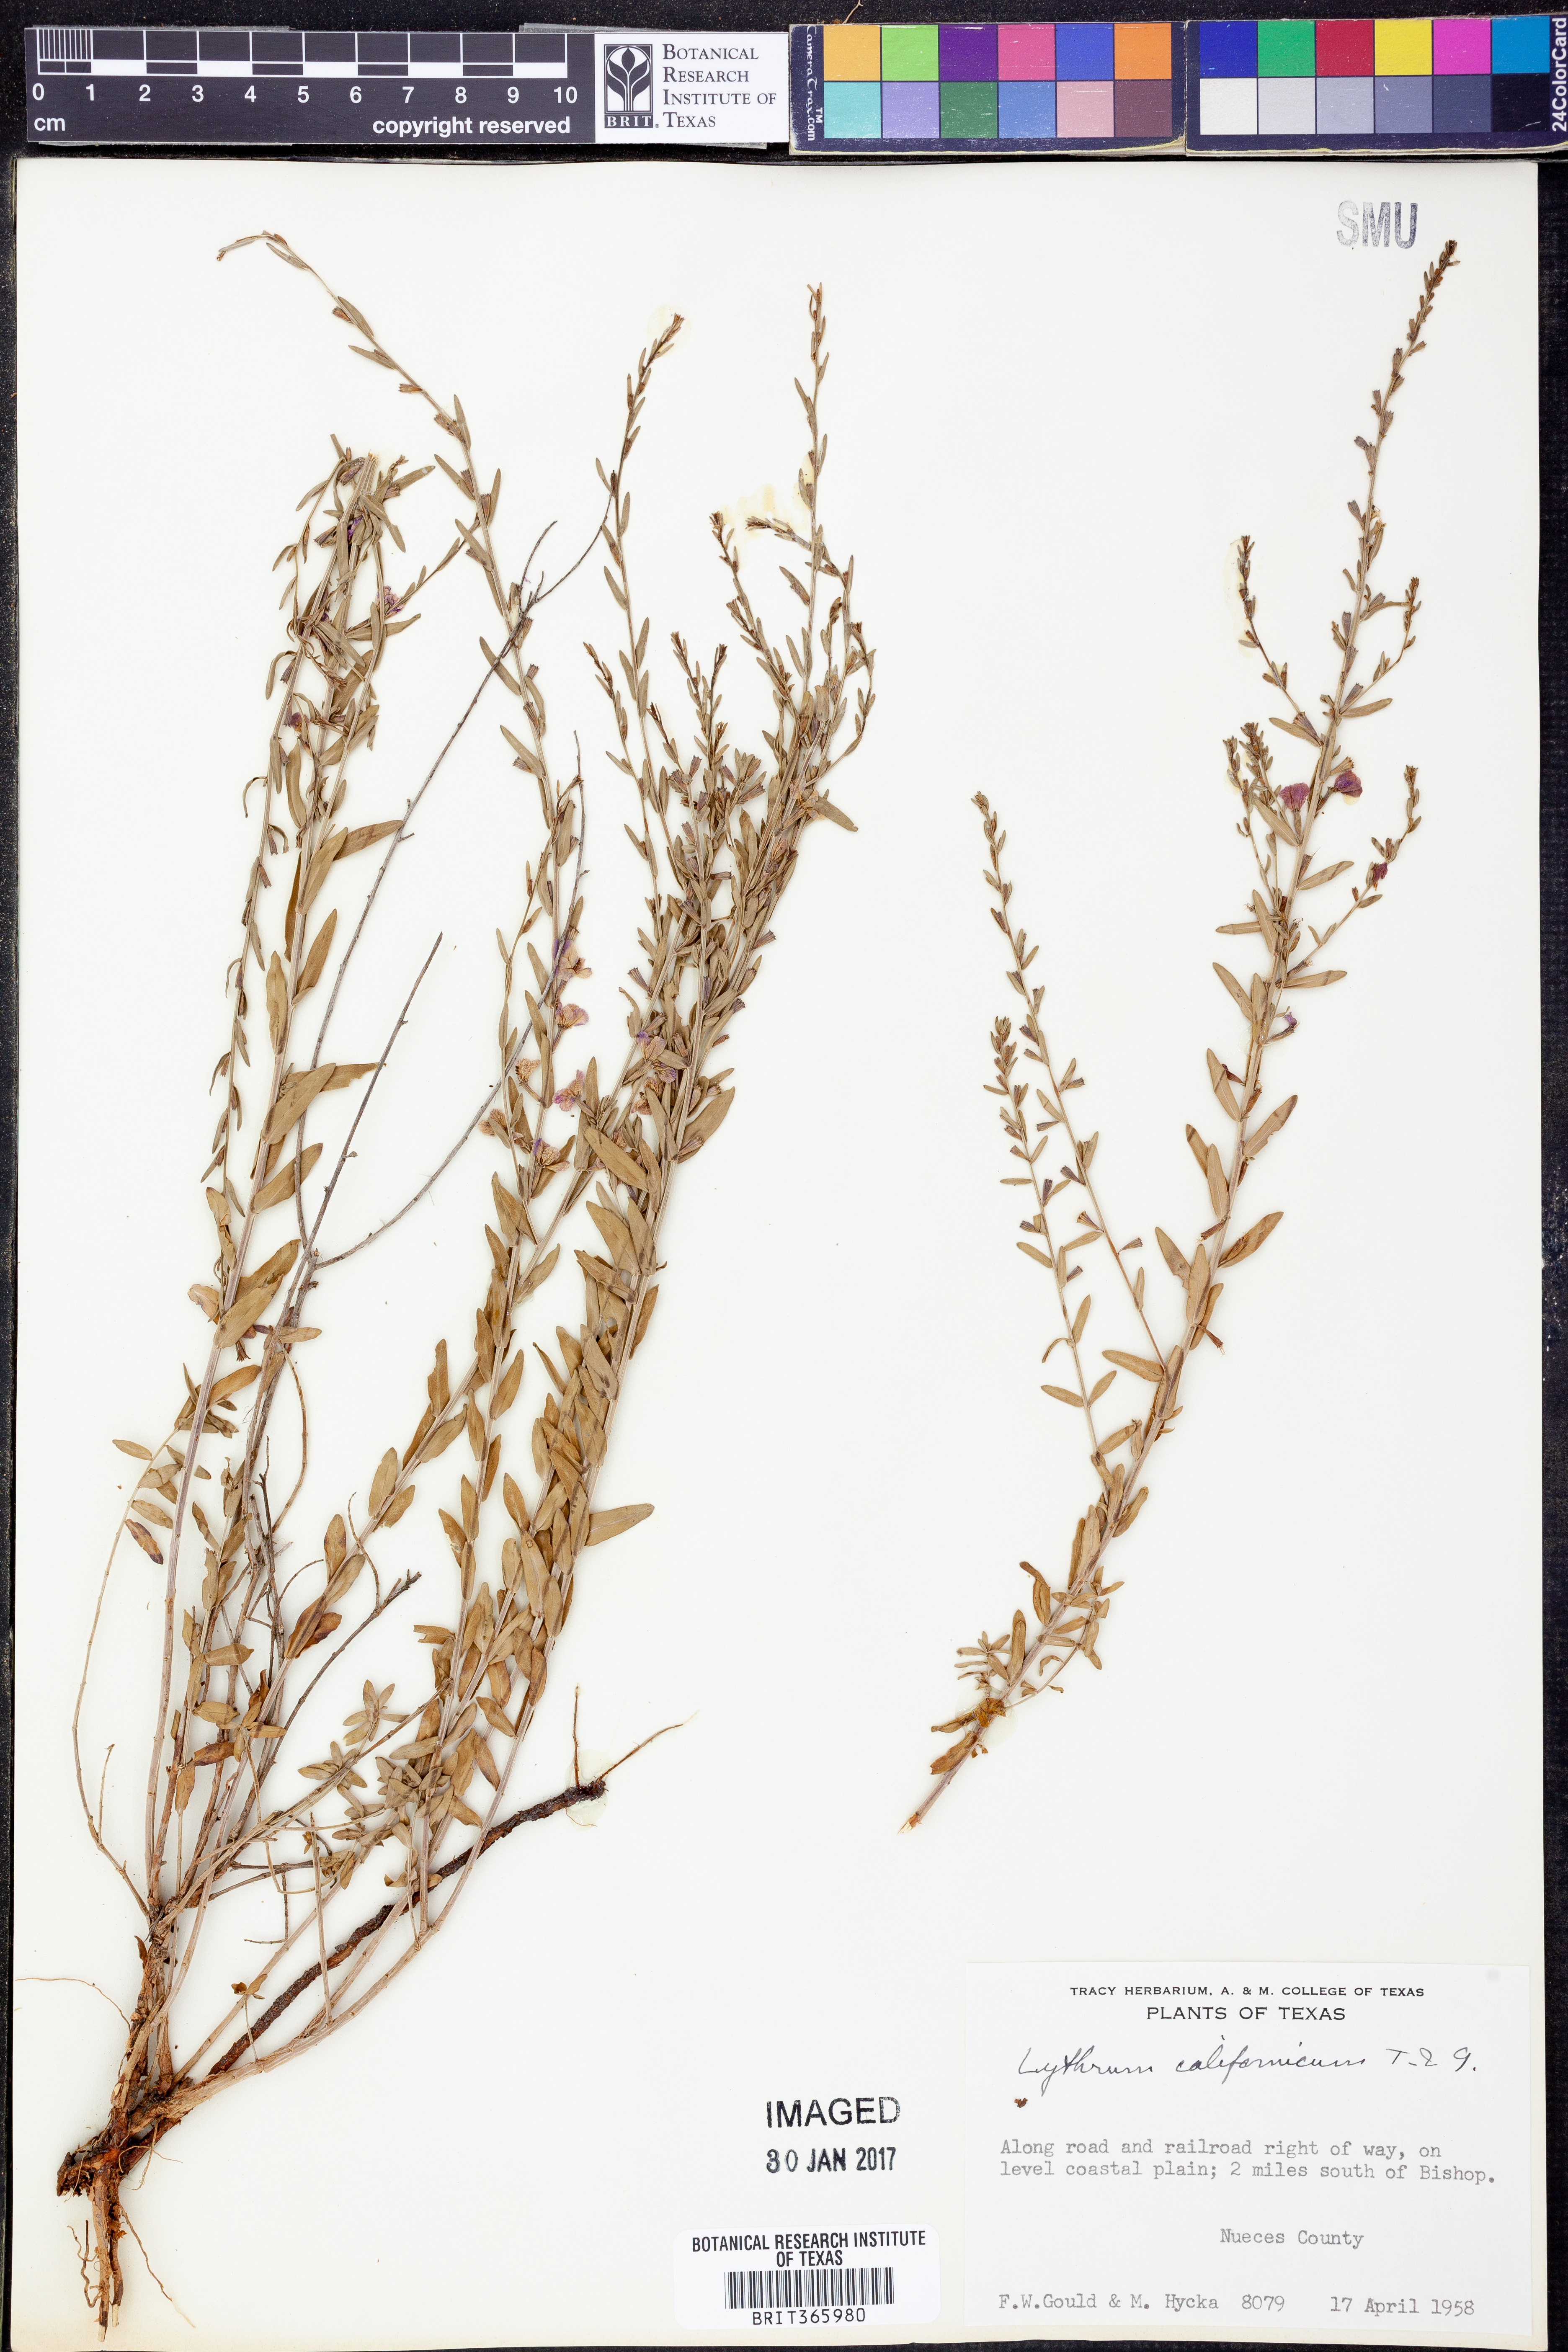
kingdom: Plantae
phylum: Tracheophyta
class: Magnoliopsida
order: Myrtales
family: Lythraceae
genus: Lythrum
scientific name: Lythrum californicum
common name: California loosestrife
